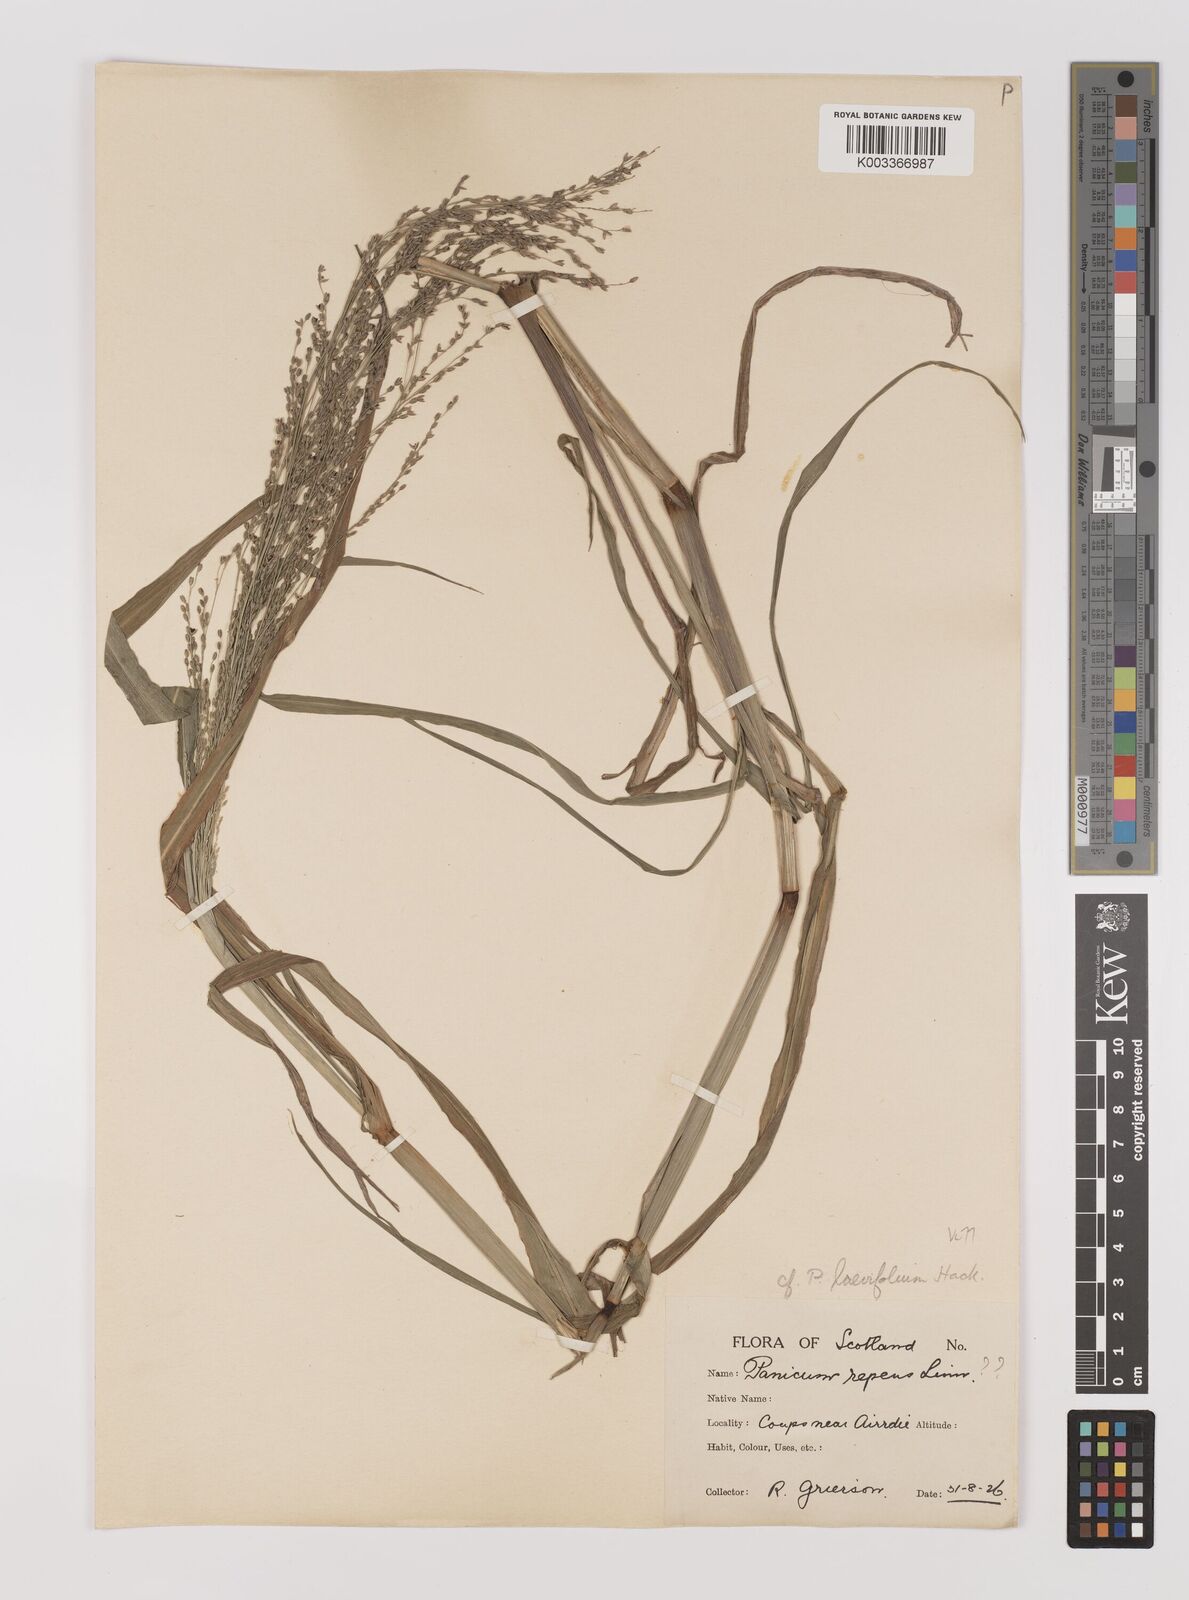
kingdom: Plantae
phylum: Tracheophyta
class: Liliopsida
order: Poales
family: Poaceae
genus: Panicum
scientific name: Panicum schinzii
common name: Sweet grass
